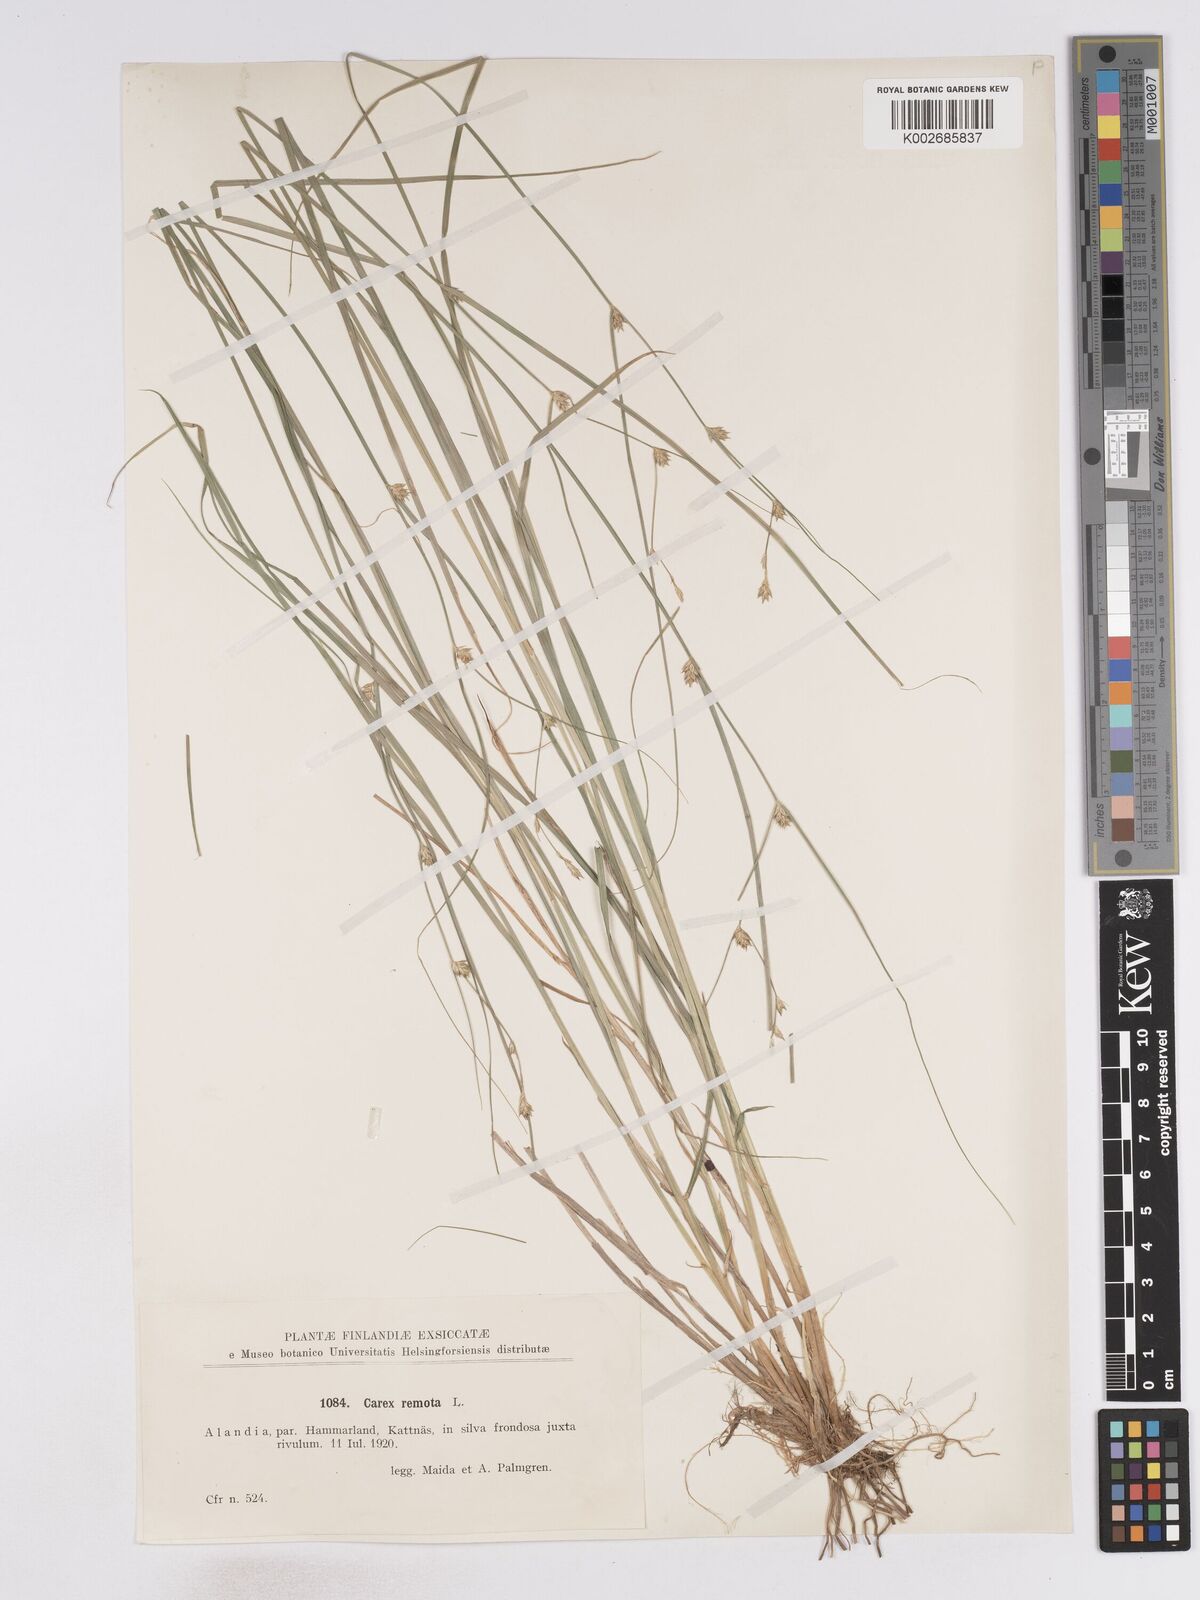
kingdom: Plantae
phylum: Tracheophyta
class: Liliopsida
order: Poales
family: Cyperaceae
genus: Carex
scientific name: Carex remota
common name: Remote sedge
